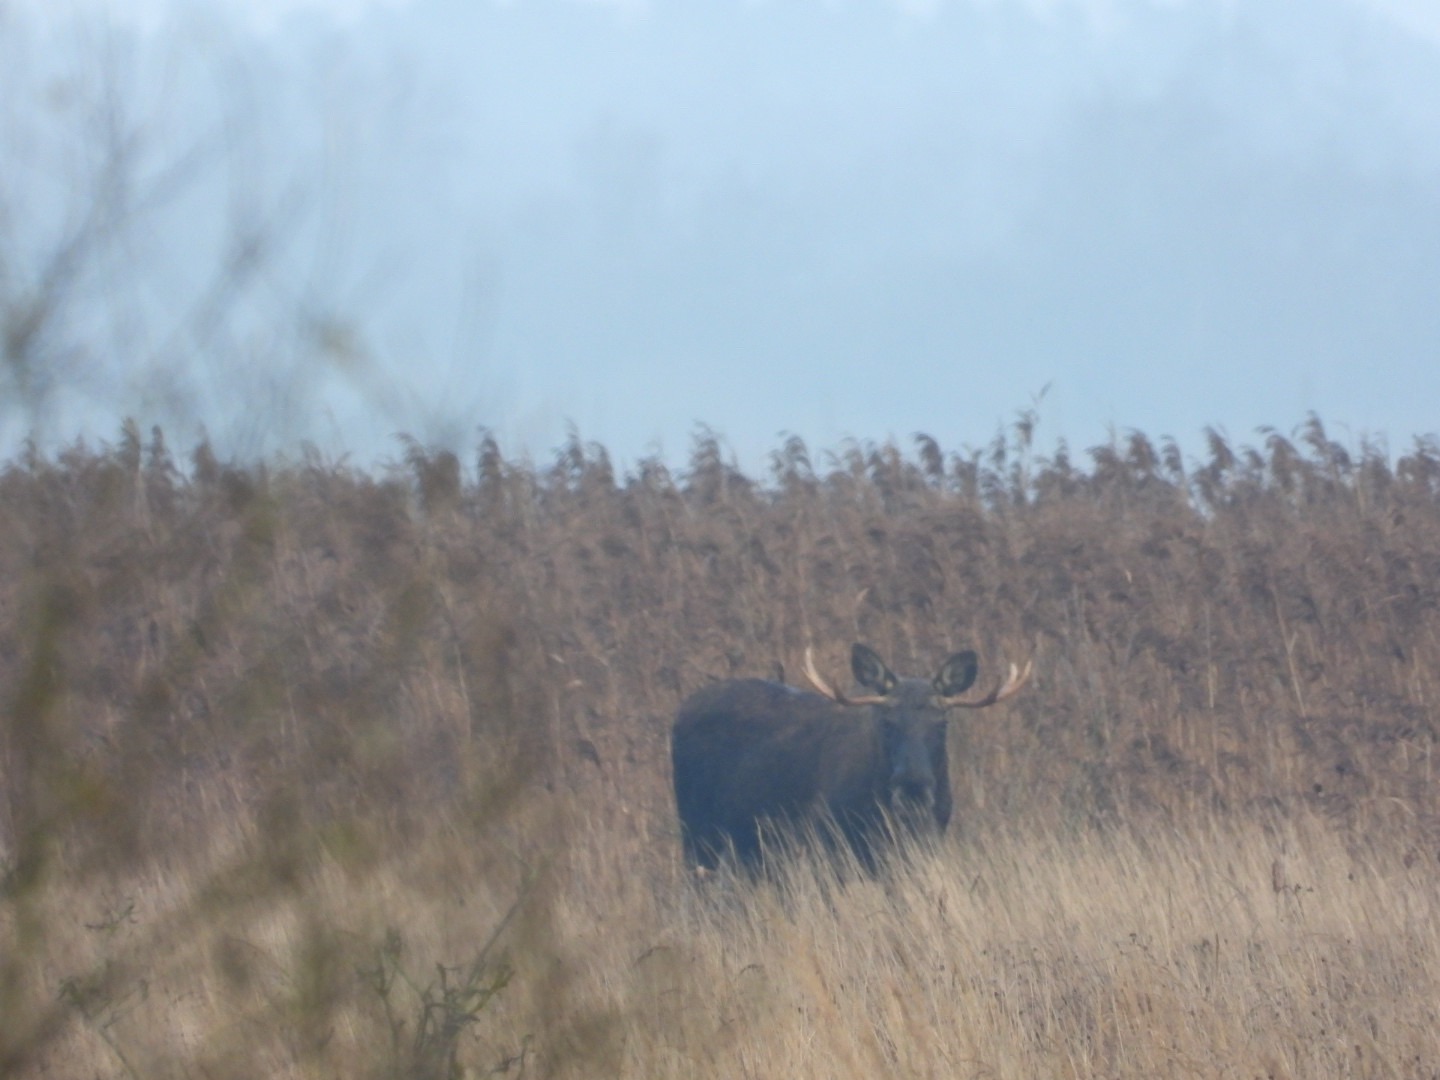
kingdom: Animalia
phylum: Chordata
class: Mammalia
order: Artiodactyla
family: Cervidae
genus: Alces
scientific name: Alces alces
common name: Elg
